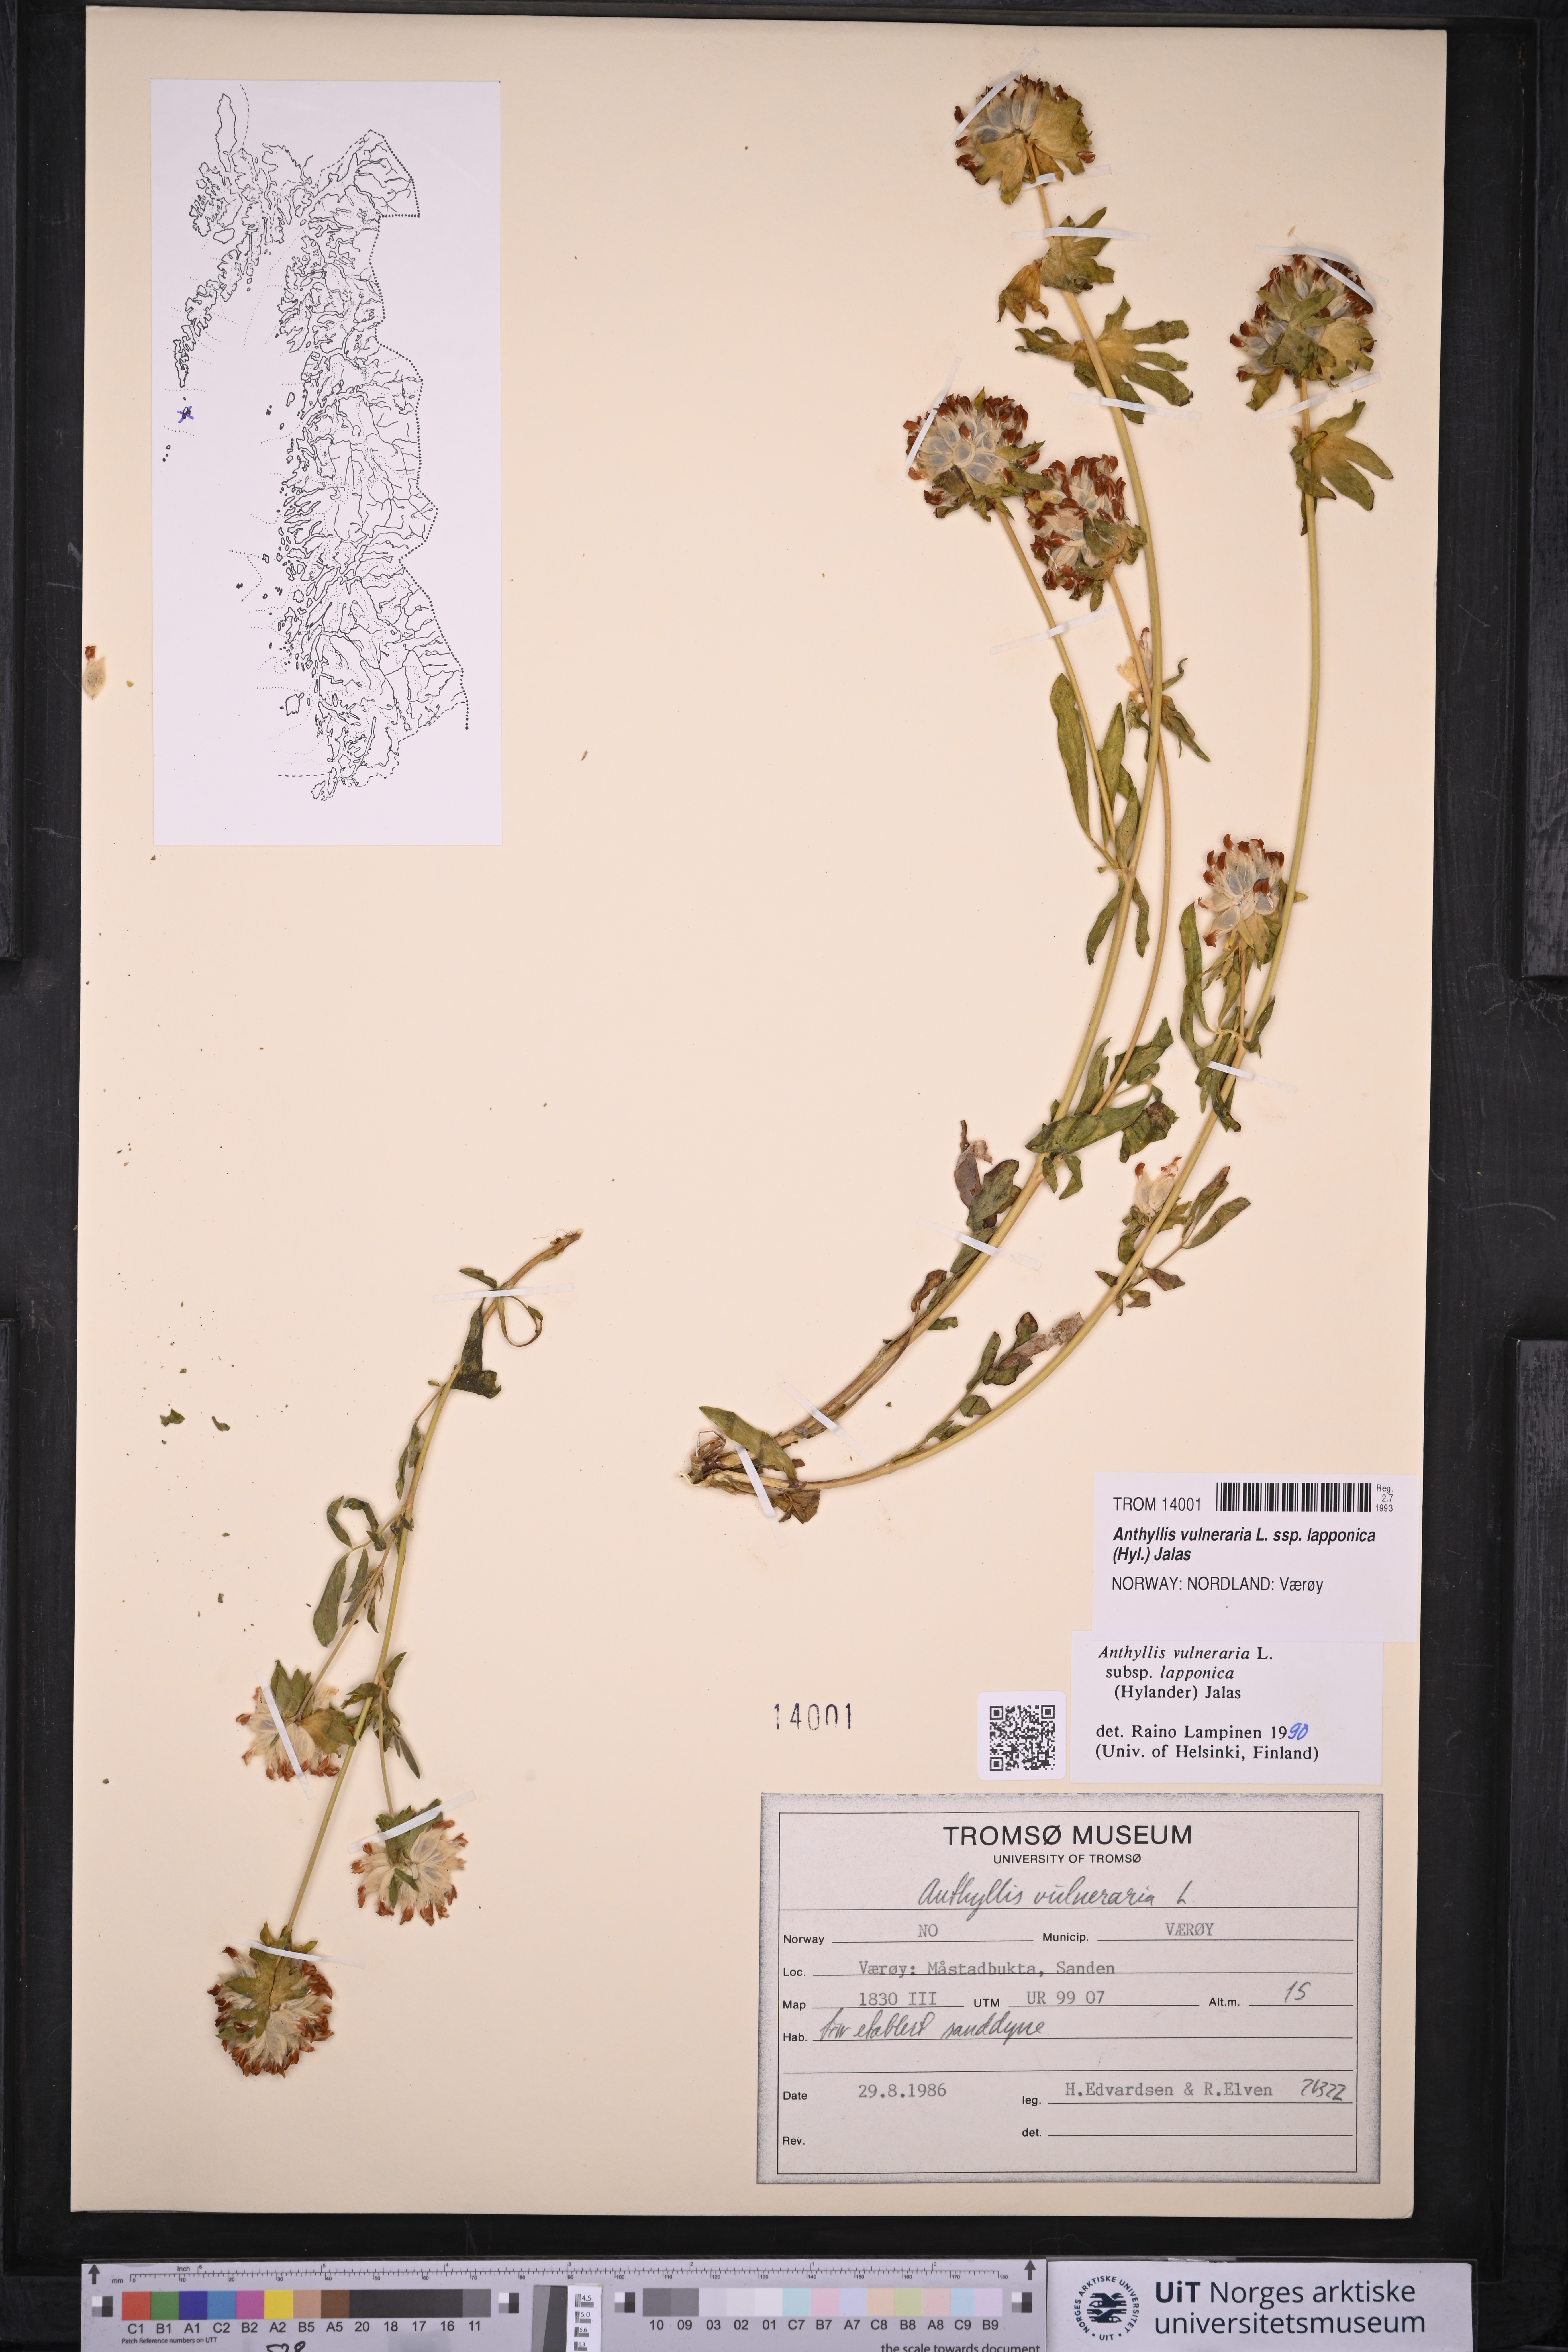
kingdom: Plantae
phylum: Tracheophyta
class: Magnoliopsida
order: Fabales
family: Fabaceae
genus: Anthyllis
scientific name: Anthyllis vulneraria
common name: Kidney vetch
